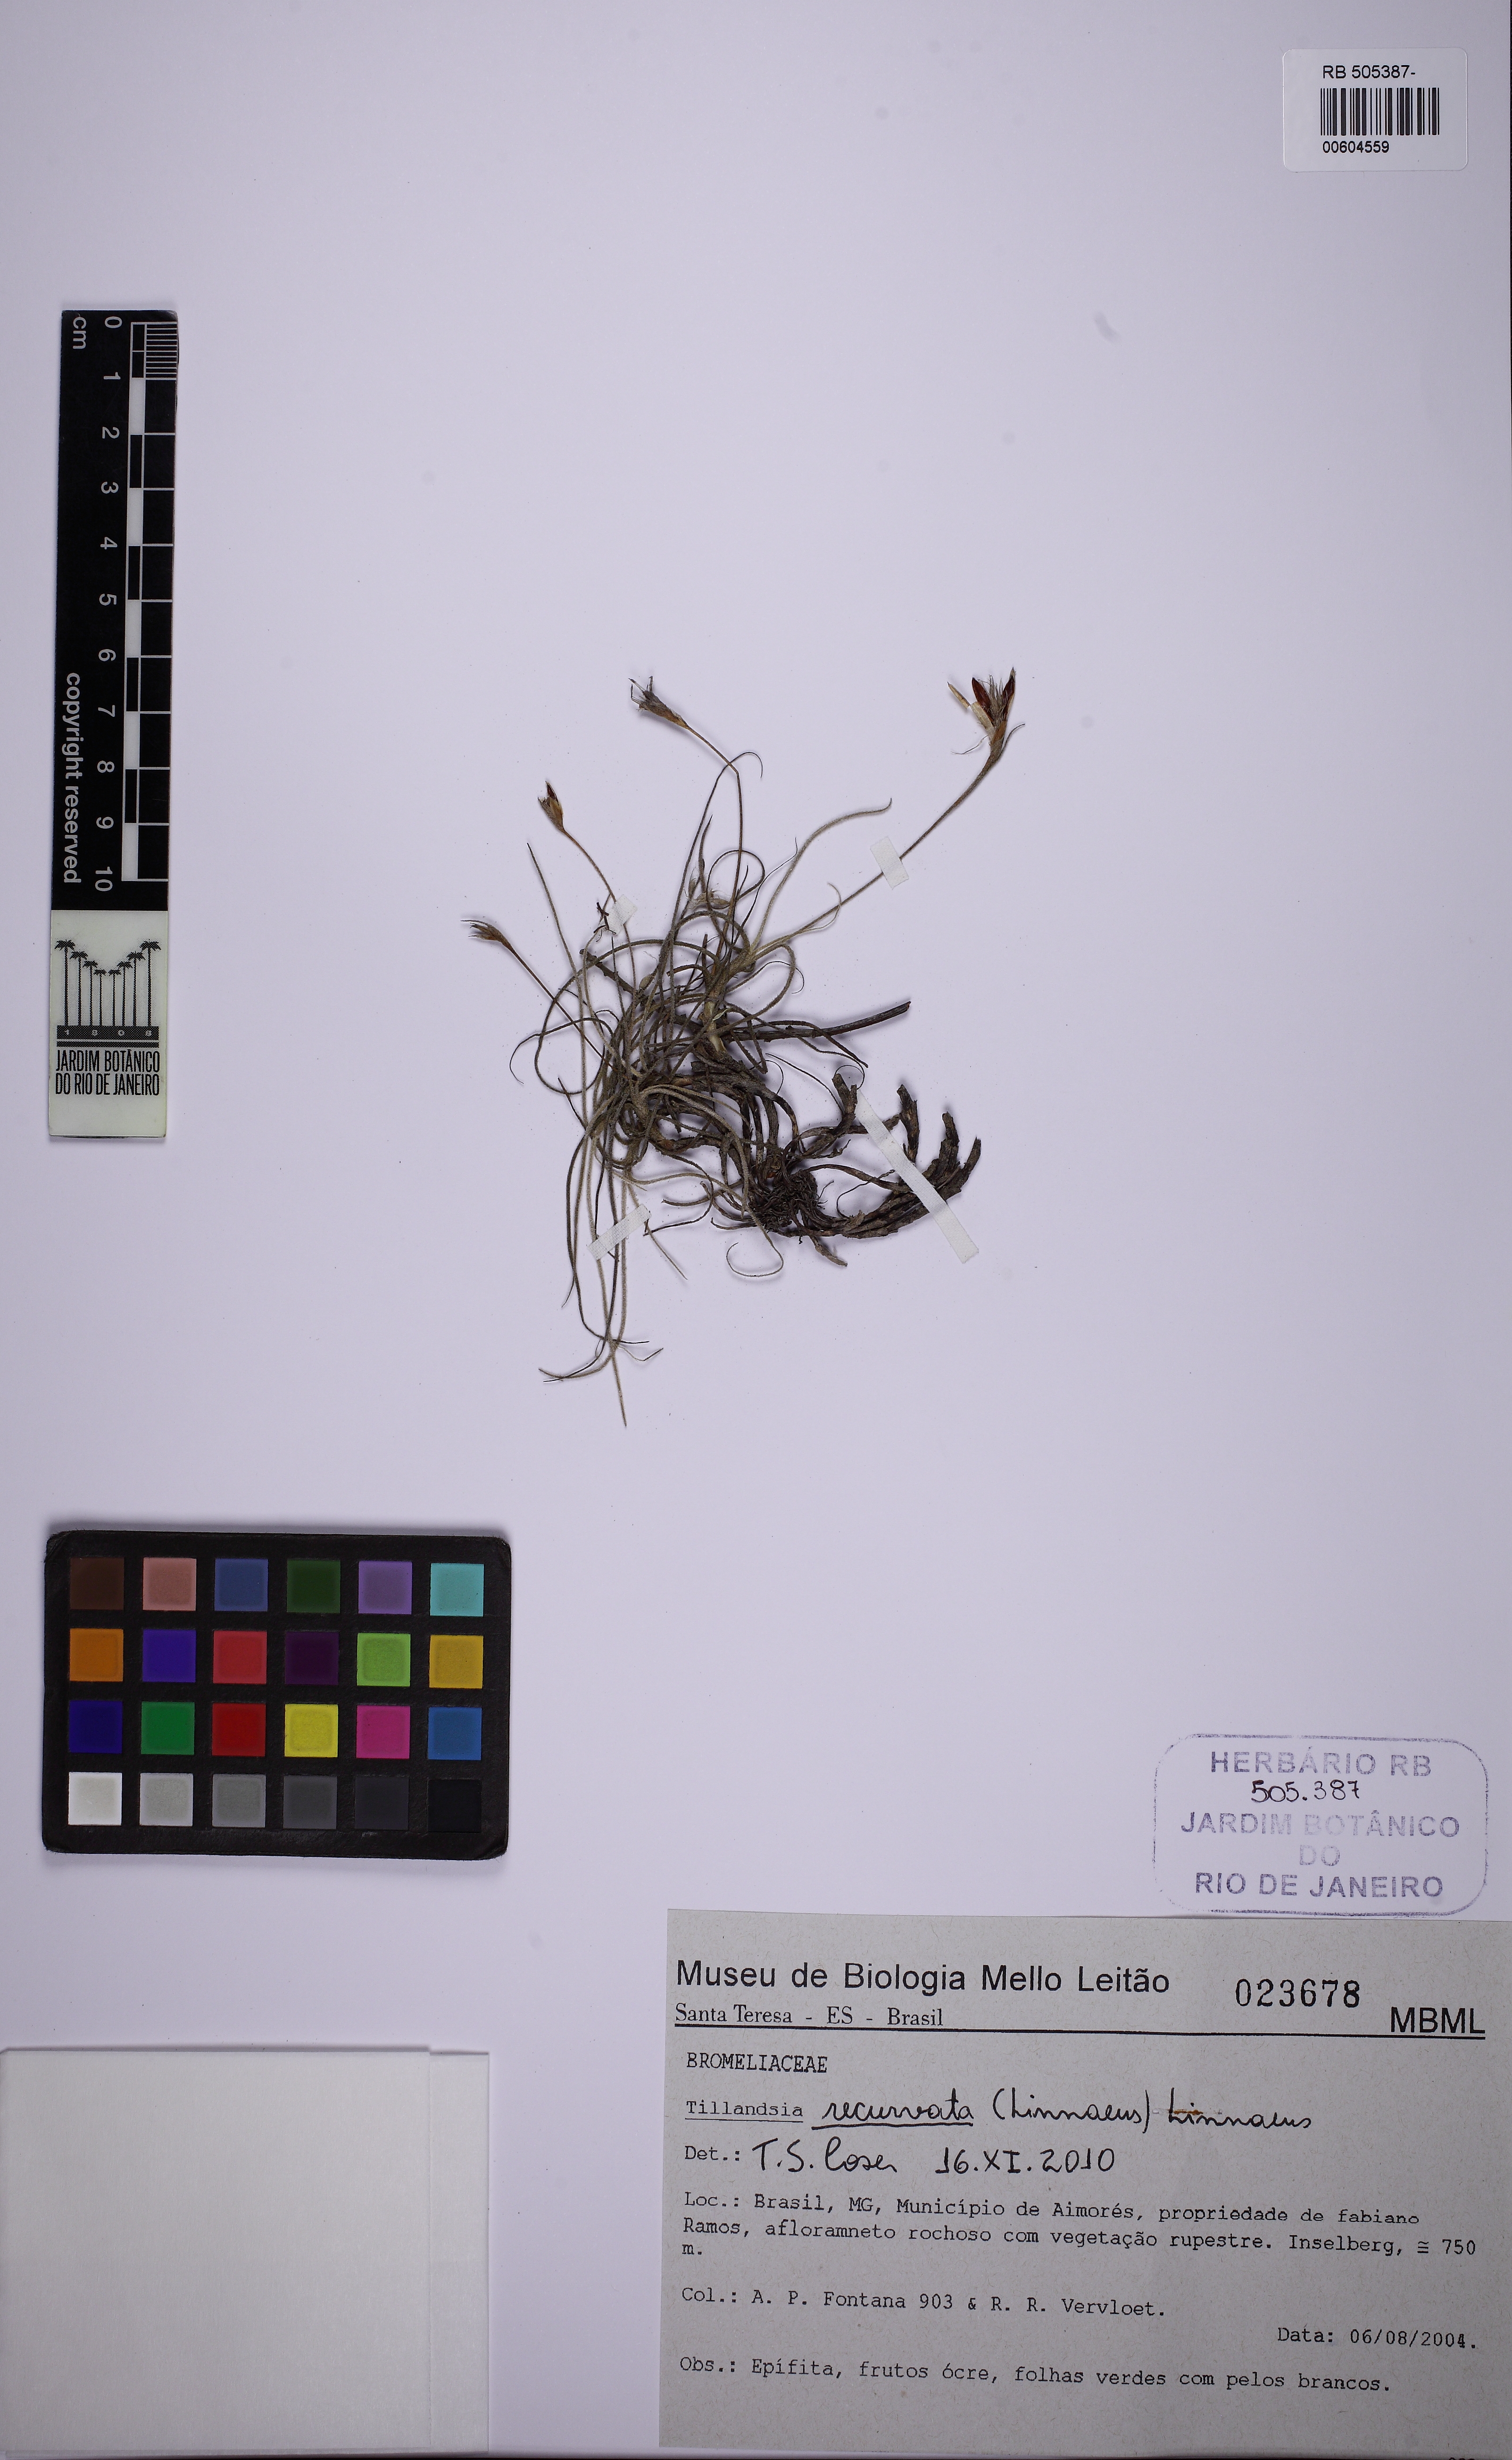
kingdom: Plantae
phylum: Tracheophyta
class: Liliopsida
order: Poales
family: Bromeliaceae
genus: Tillandsia
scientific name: Tillandsia recurvata
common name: Small ballmoss
